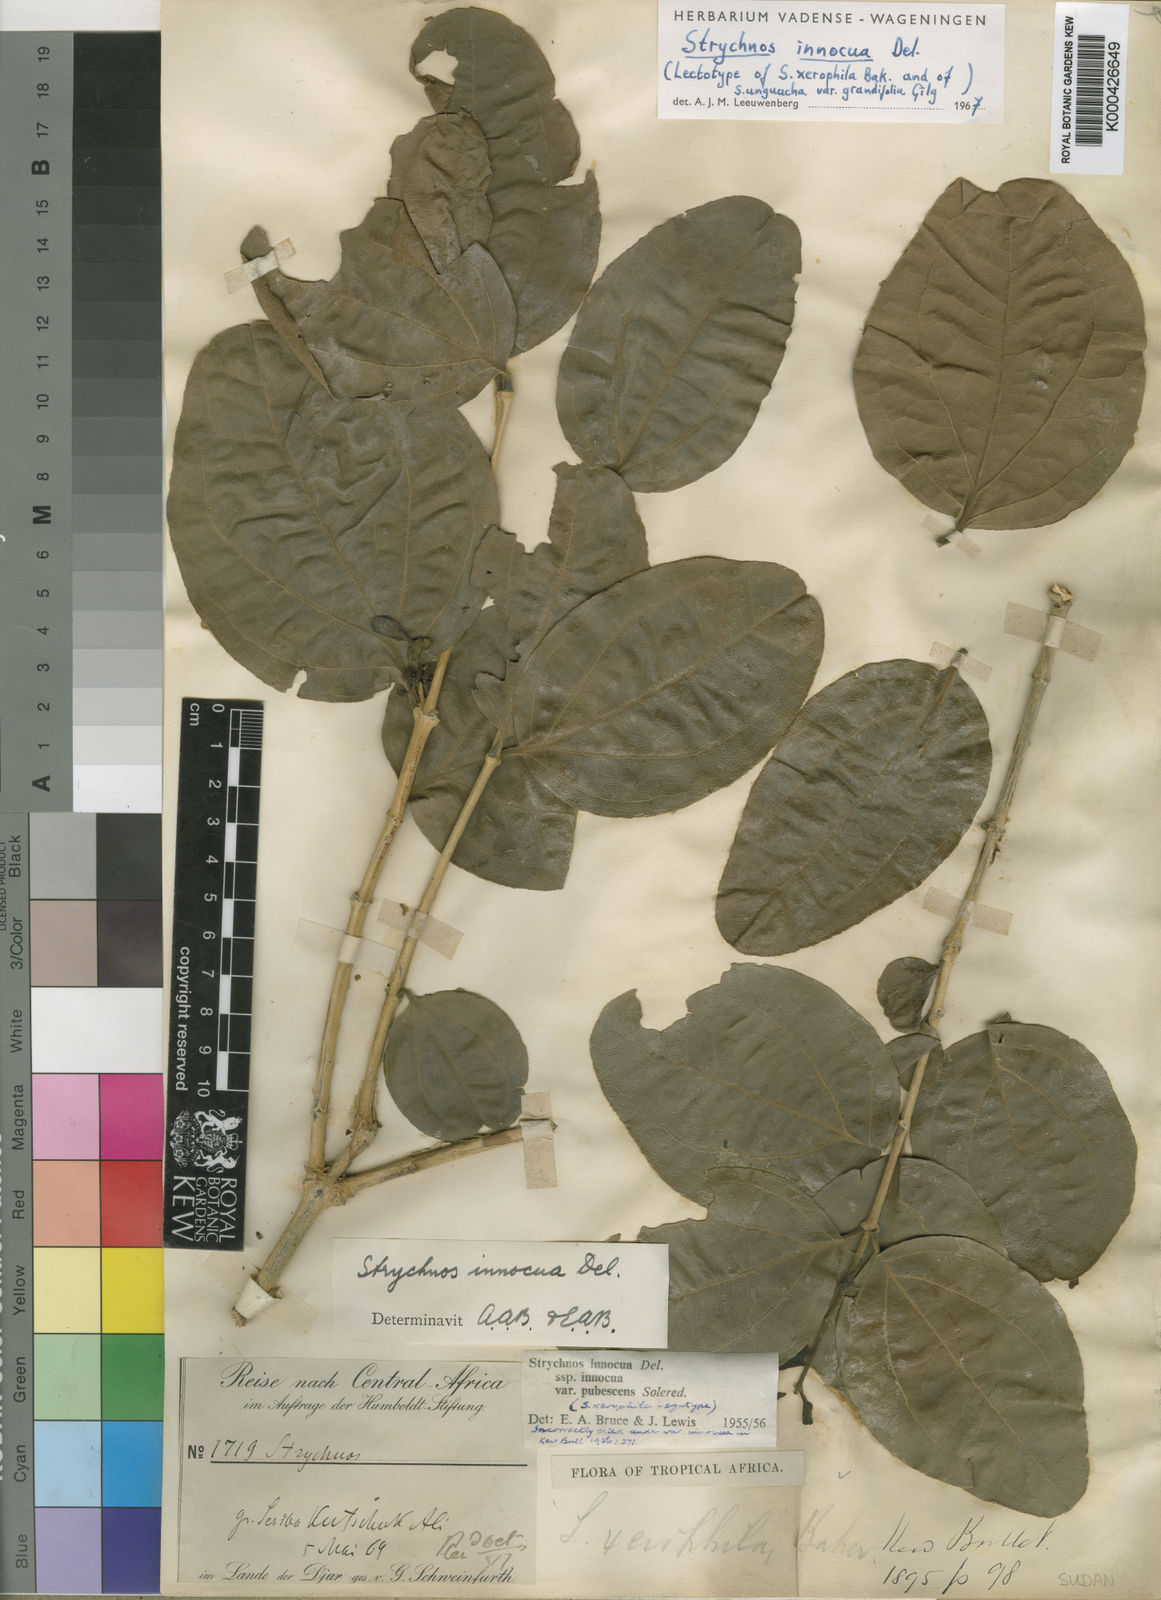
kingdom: Plantae
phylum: Tracheophyta
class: Magnoliopsida
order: Gentianales
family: Loganiaceae
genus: Strychnos
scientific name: Strychnos innocua
